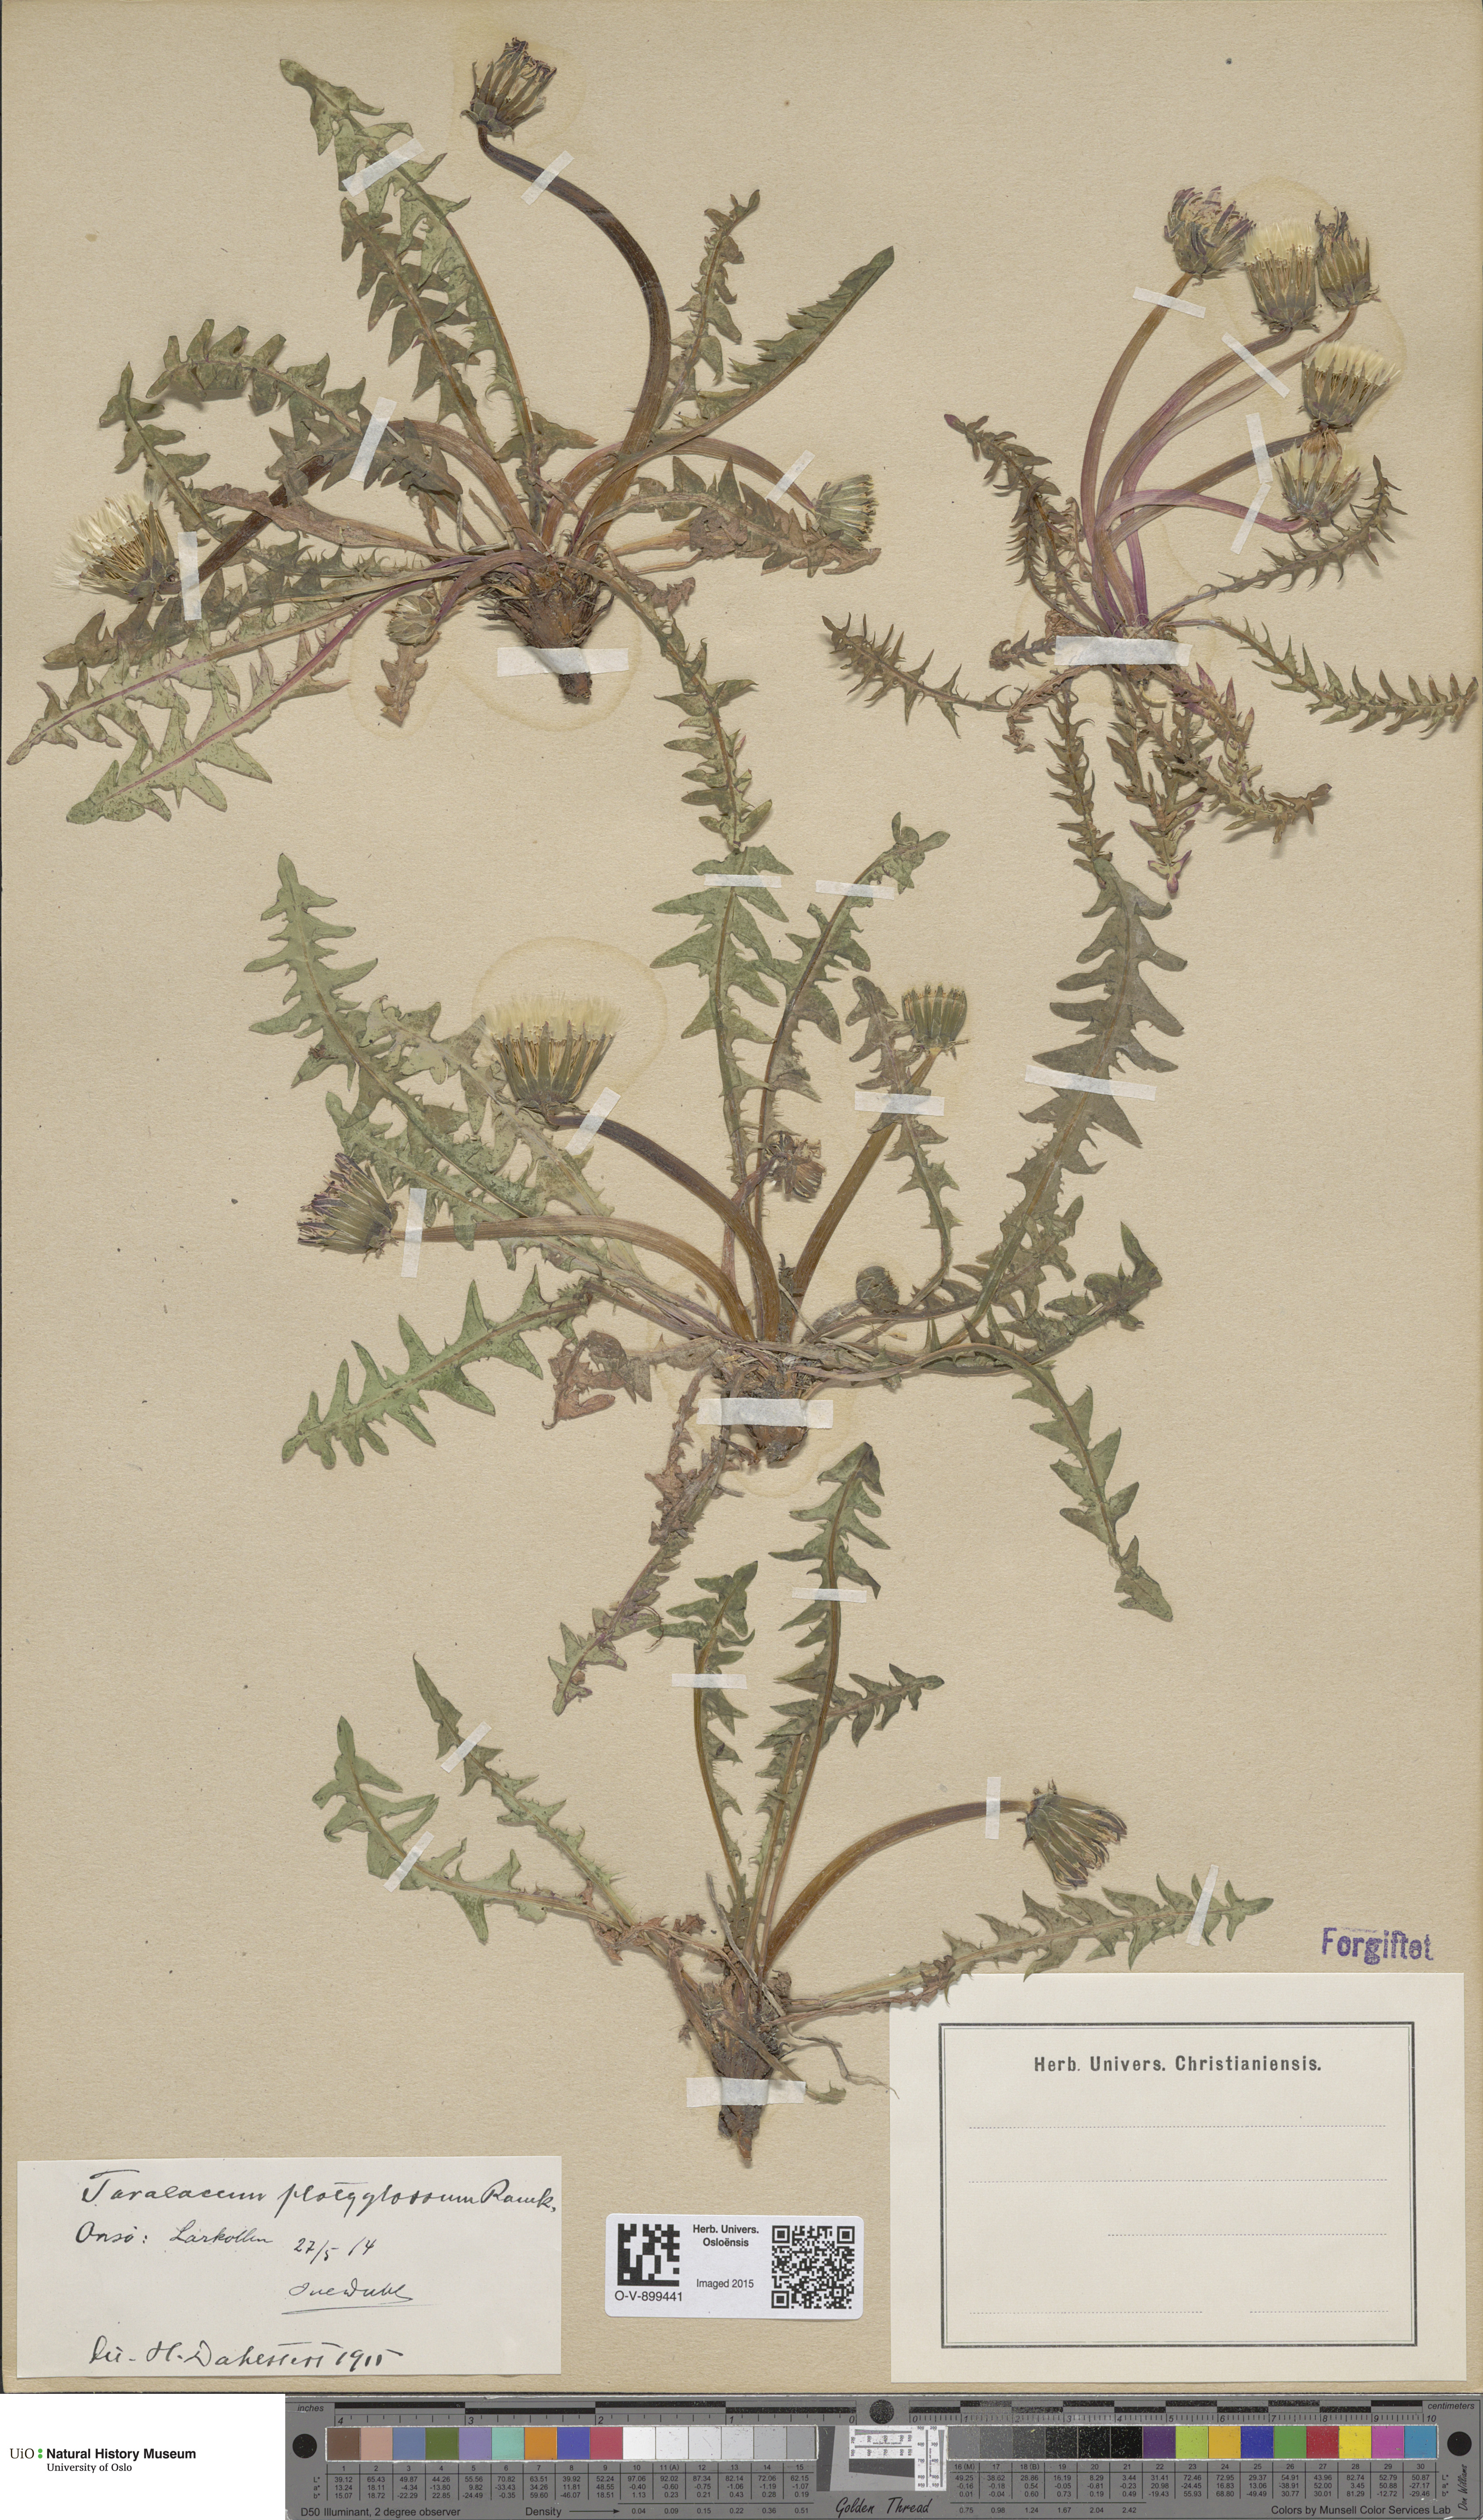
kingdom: Plantae
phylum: Tracheophyta
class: Magnoliopsida
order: Asterales
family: Asteraceae
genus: Taraxacum
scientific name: Taraxacum platyglossum
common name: Tongue-leaved dandelion
